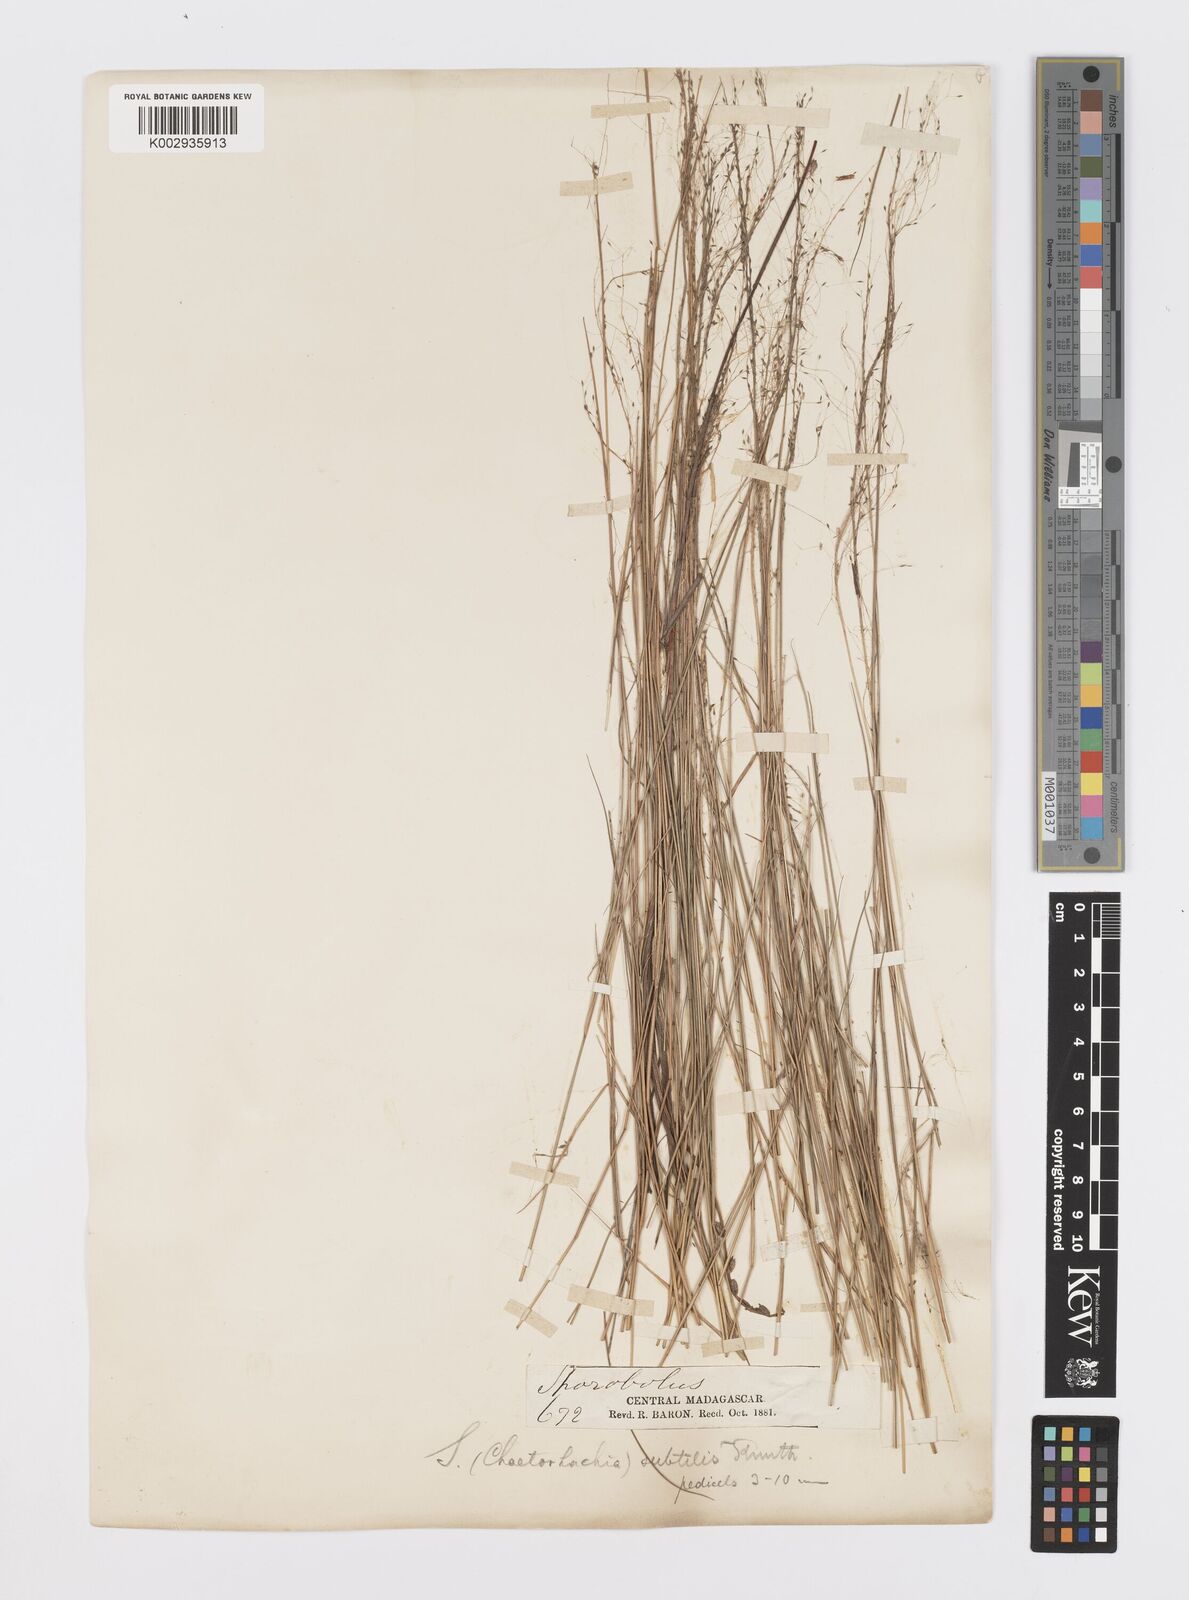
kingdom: Plantae
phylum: Tracheophyta
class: Liliopsida
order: Poales
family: Poaceae
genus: Sporobolus
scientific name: Sporobolus subtilis
